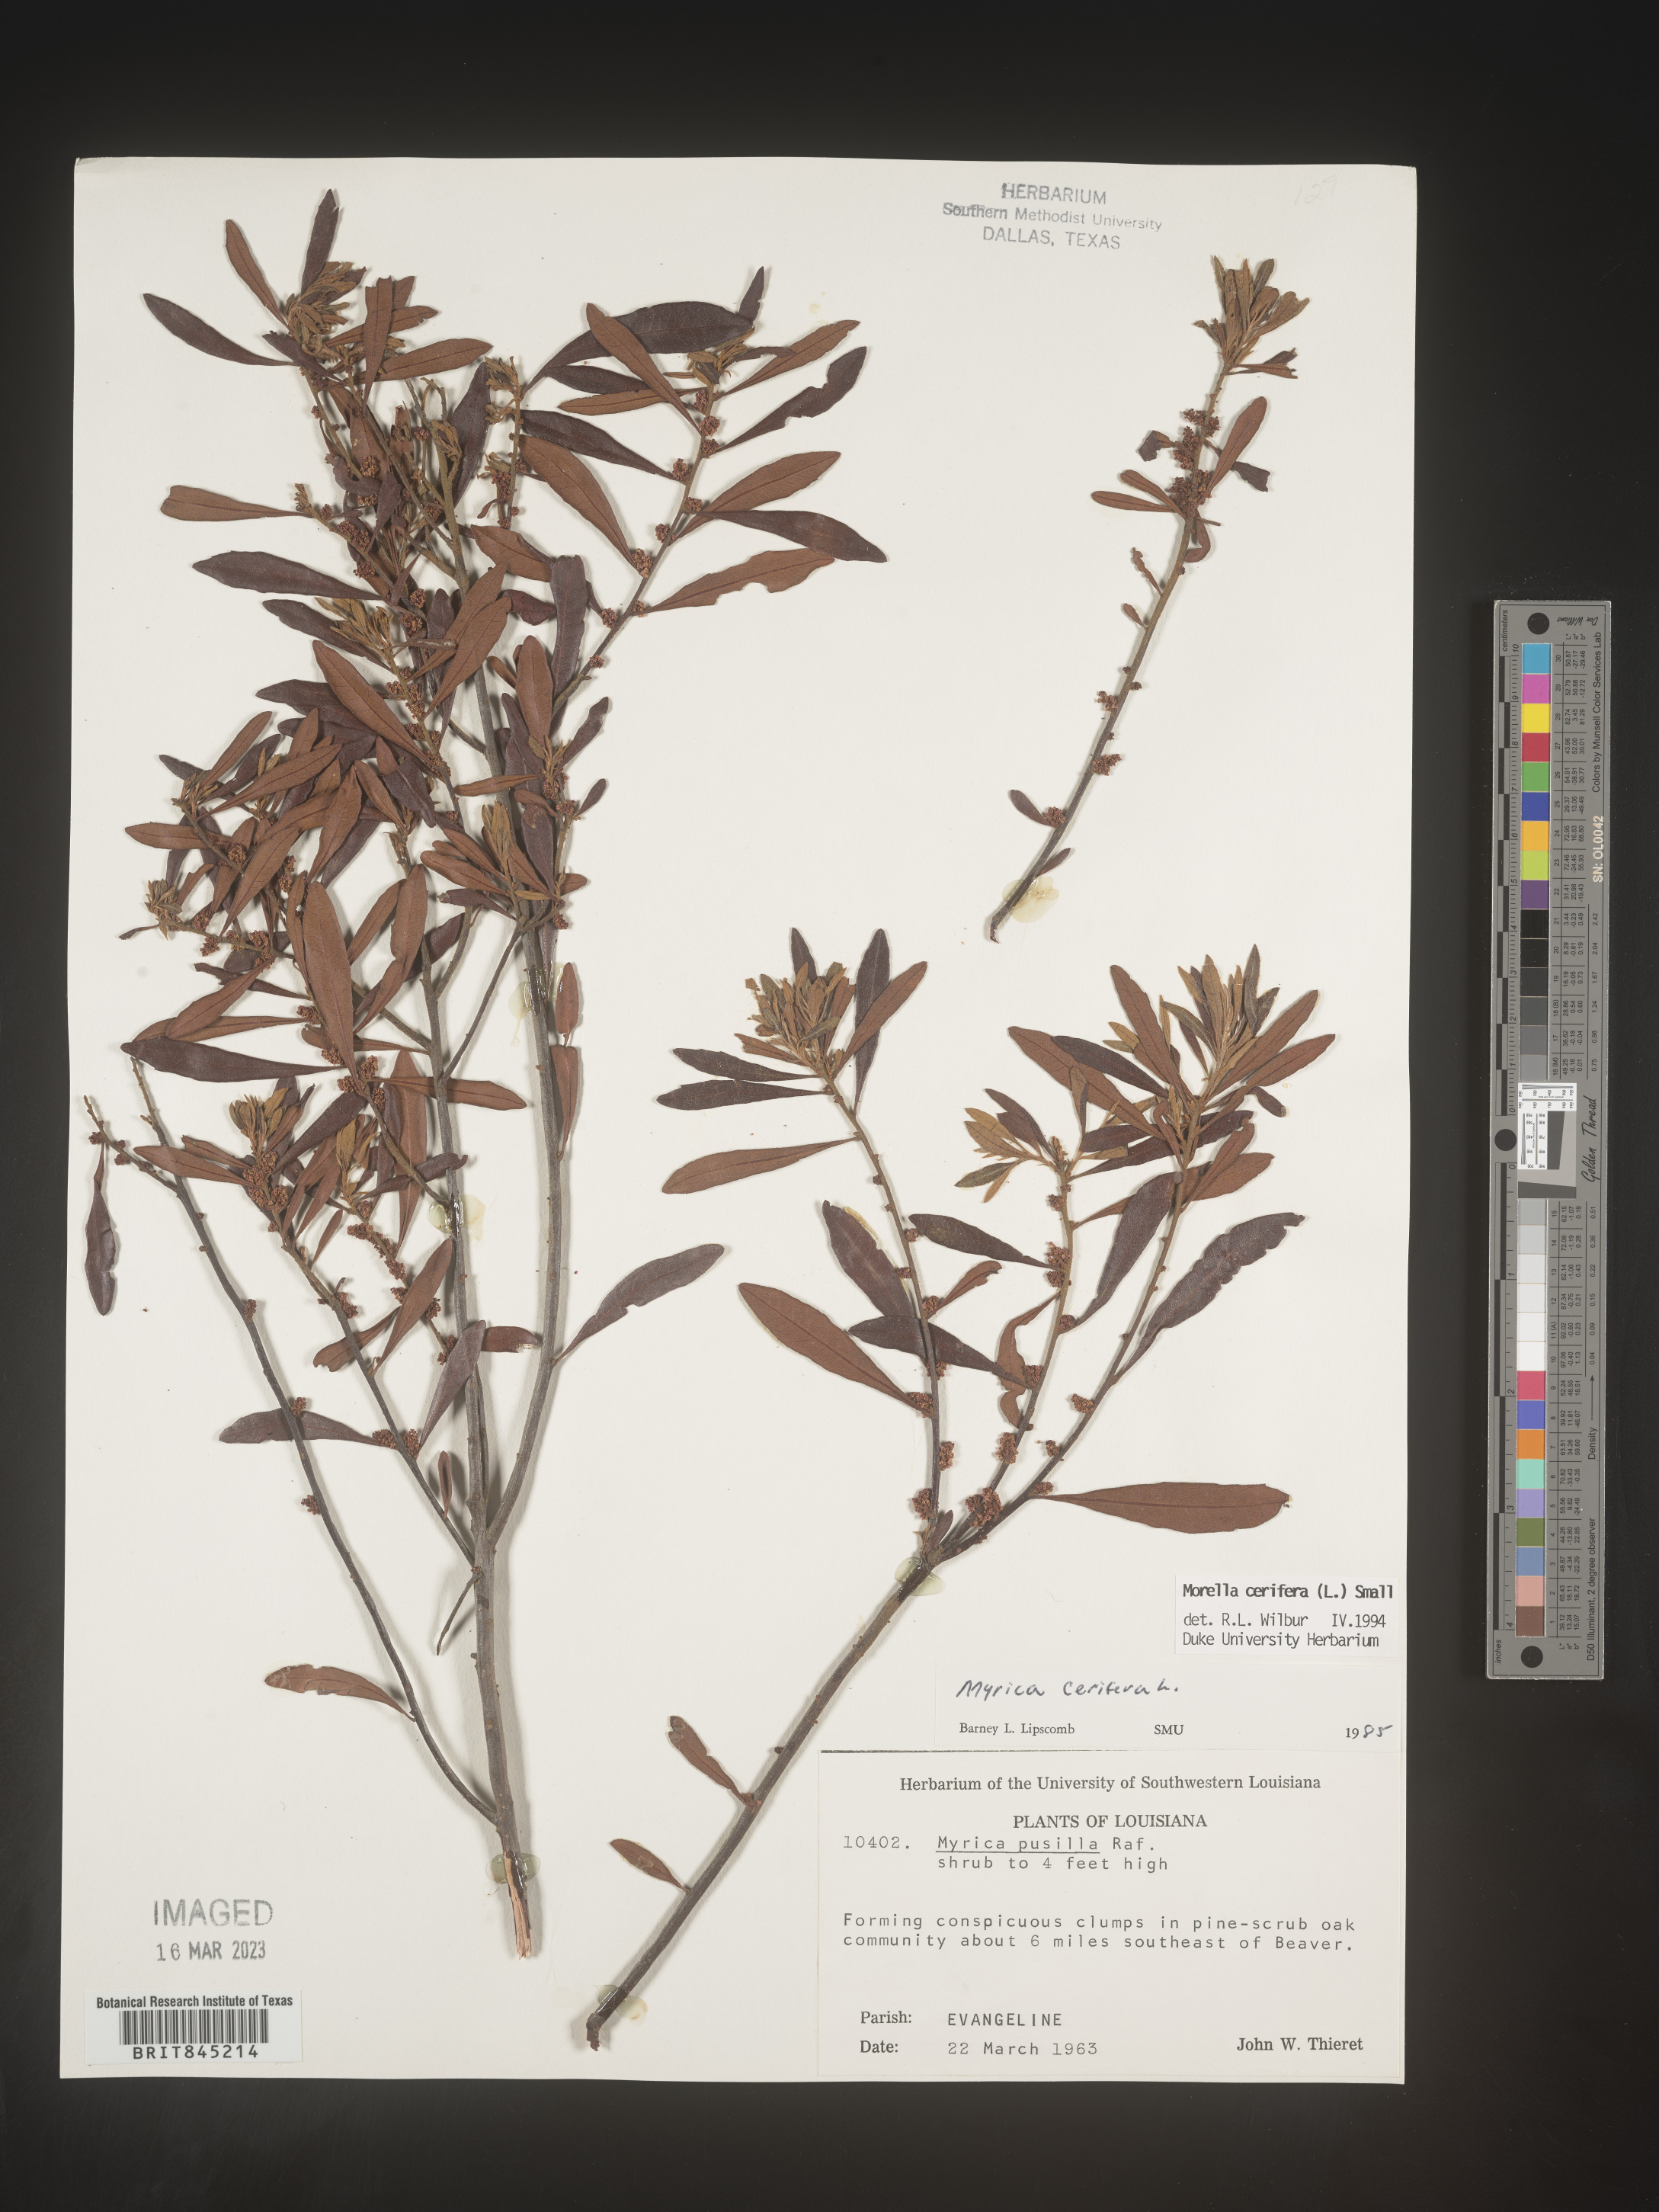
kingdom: Plantae
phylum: Tracheophyta
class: Magnoliopsida
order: Fagales
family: Myricaceae
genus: Morella
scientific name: Morella cerifera
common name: Wax myrtle
